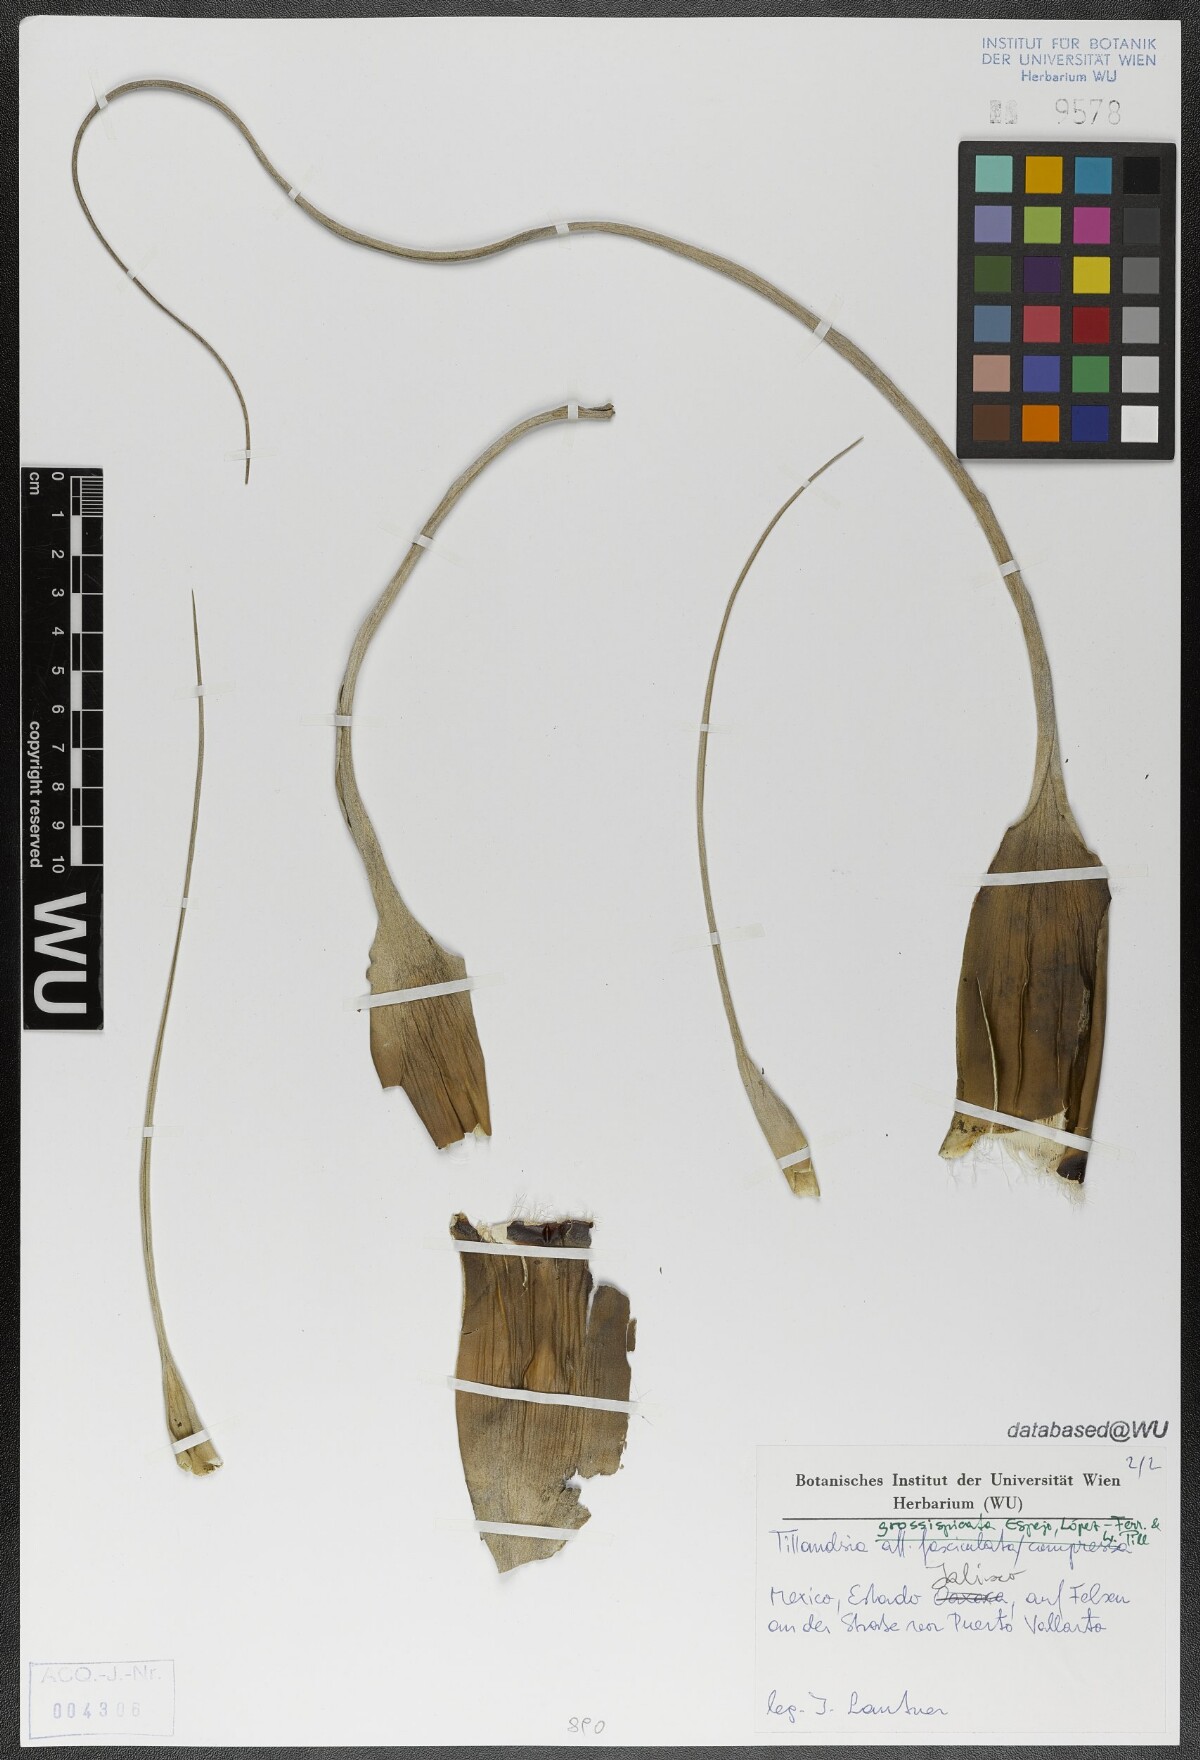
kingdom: Plantae
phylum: Tracheophyta
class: Liliopsida
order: Poales
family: Bromeliaceae
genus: Tillandsia
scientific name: Tillandsia grossispicata
